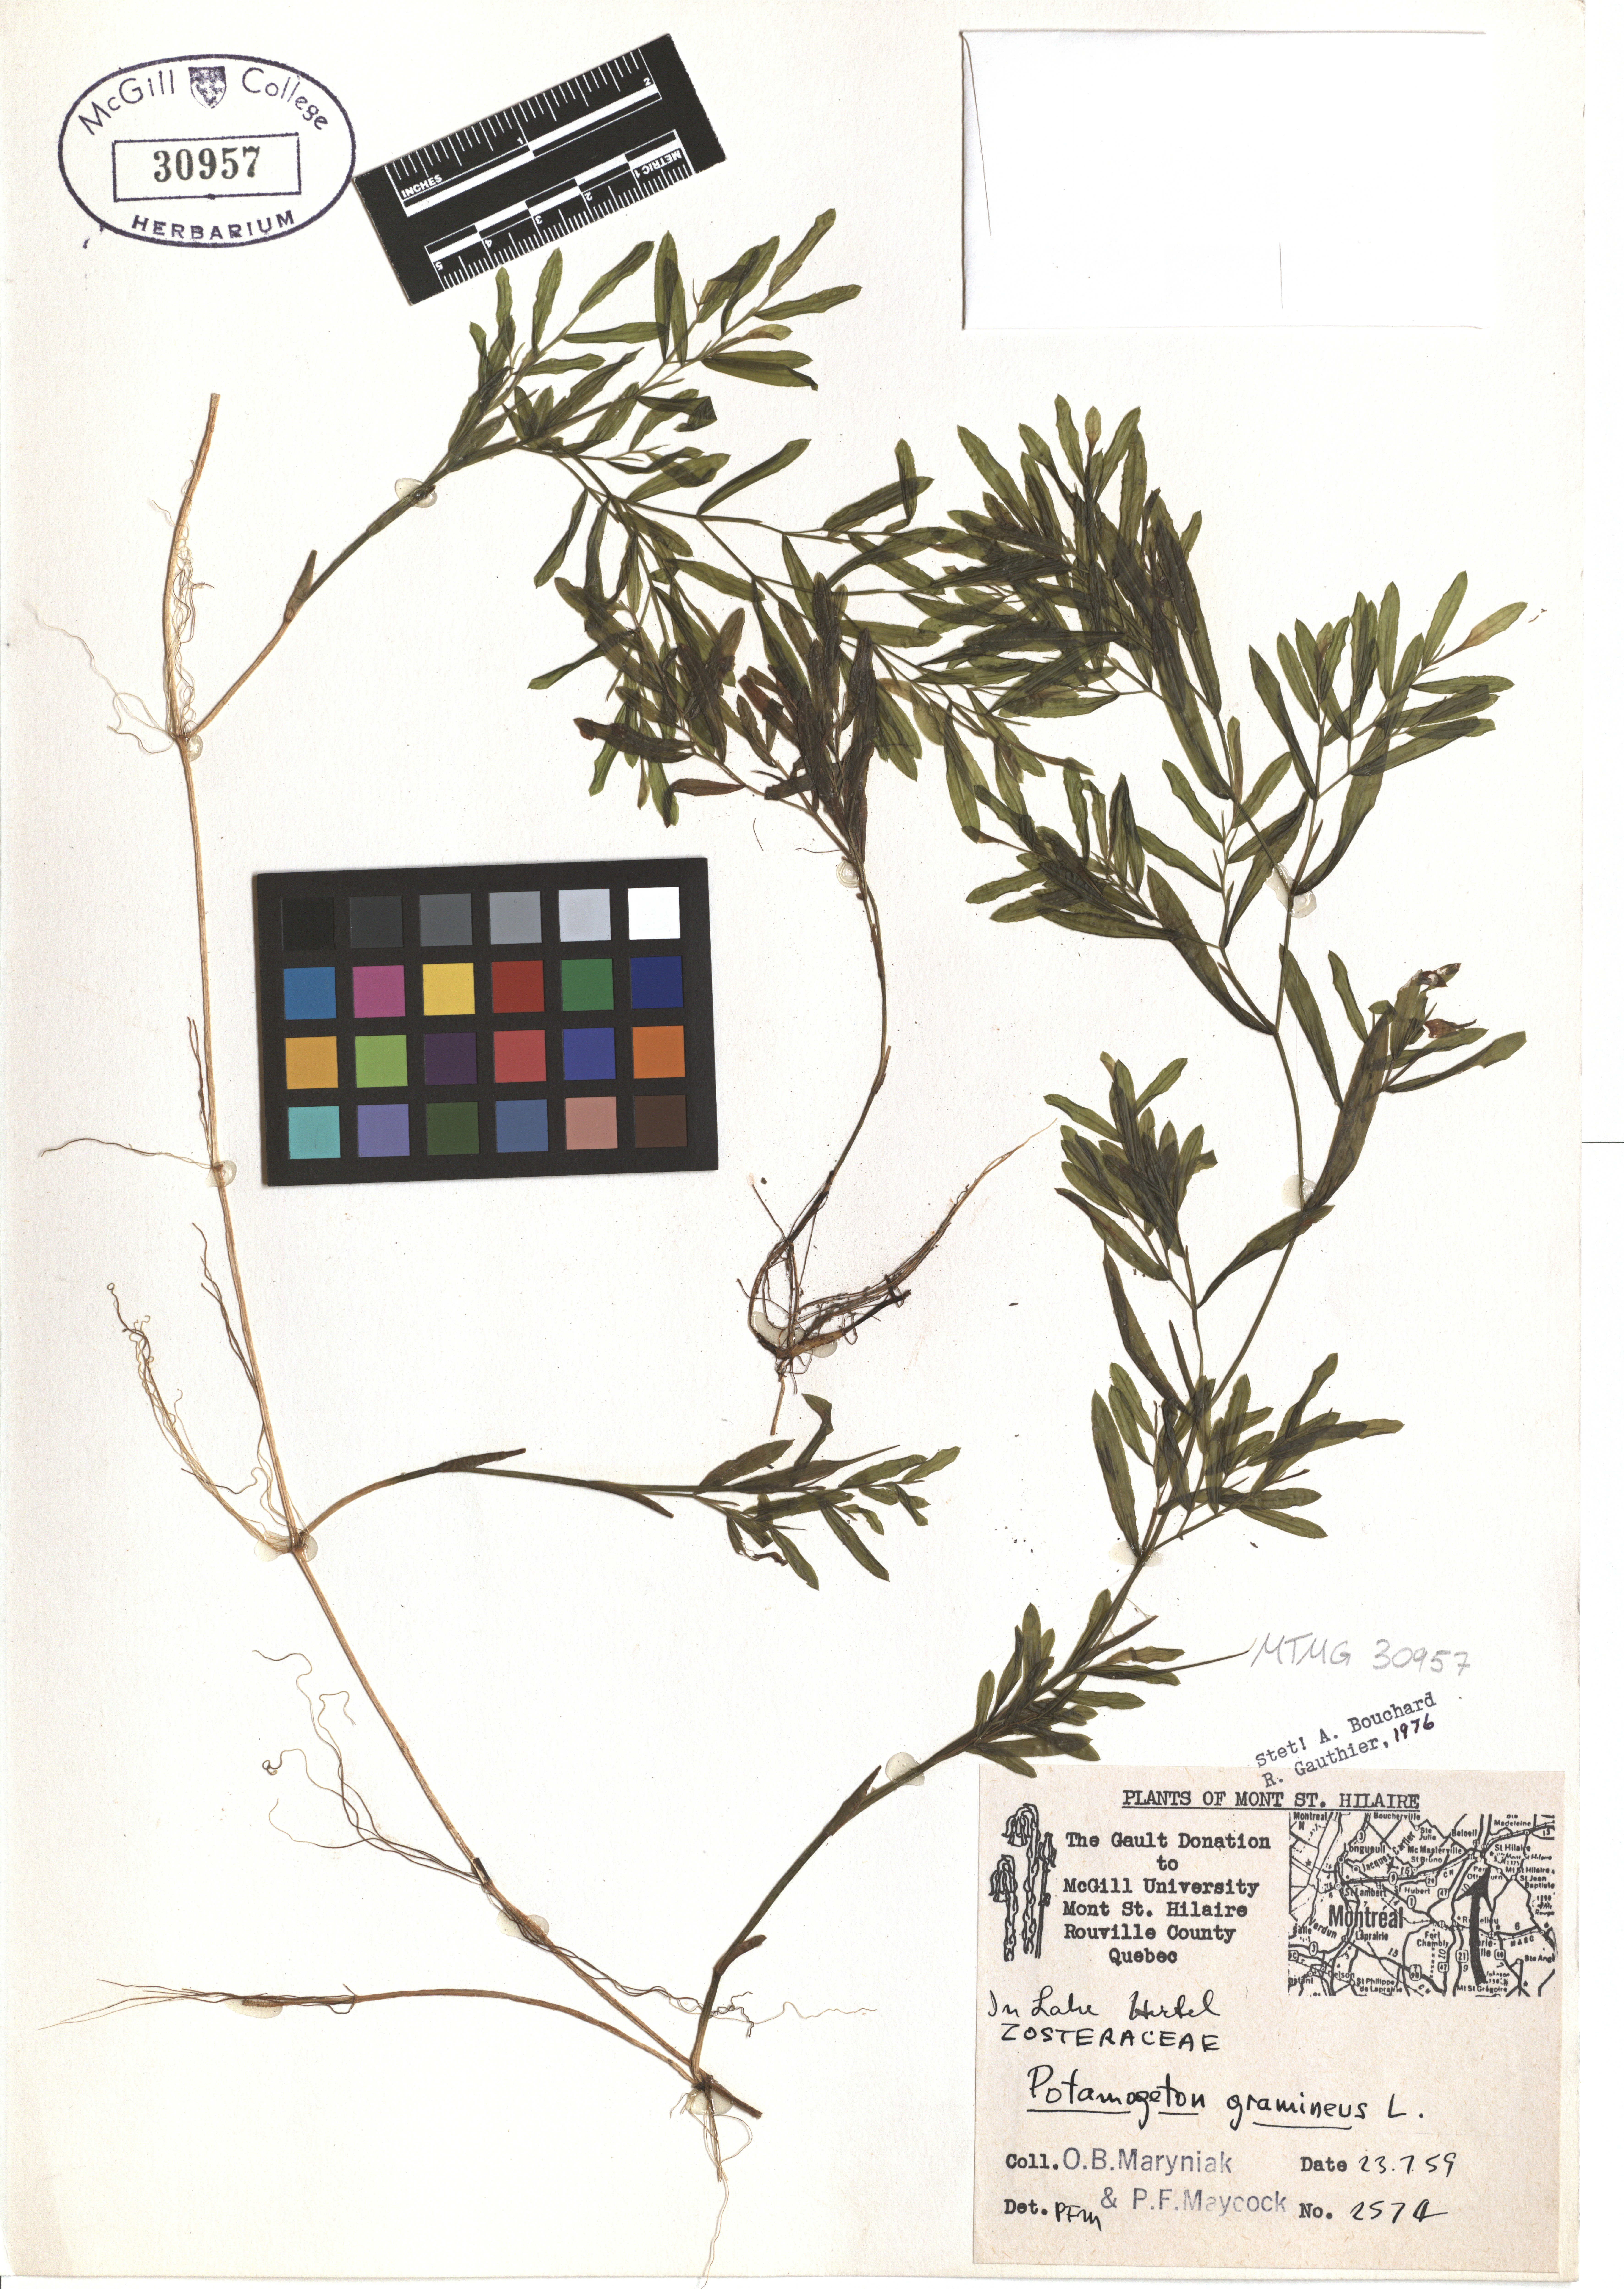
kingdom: Plantae
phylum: Tracheophyta
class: Liliopsida
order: Alismatales
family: Potamogetonaceae
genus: Potamogeton
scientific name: Potamogeton gramineus
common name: Various-leaved pondweed
